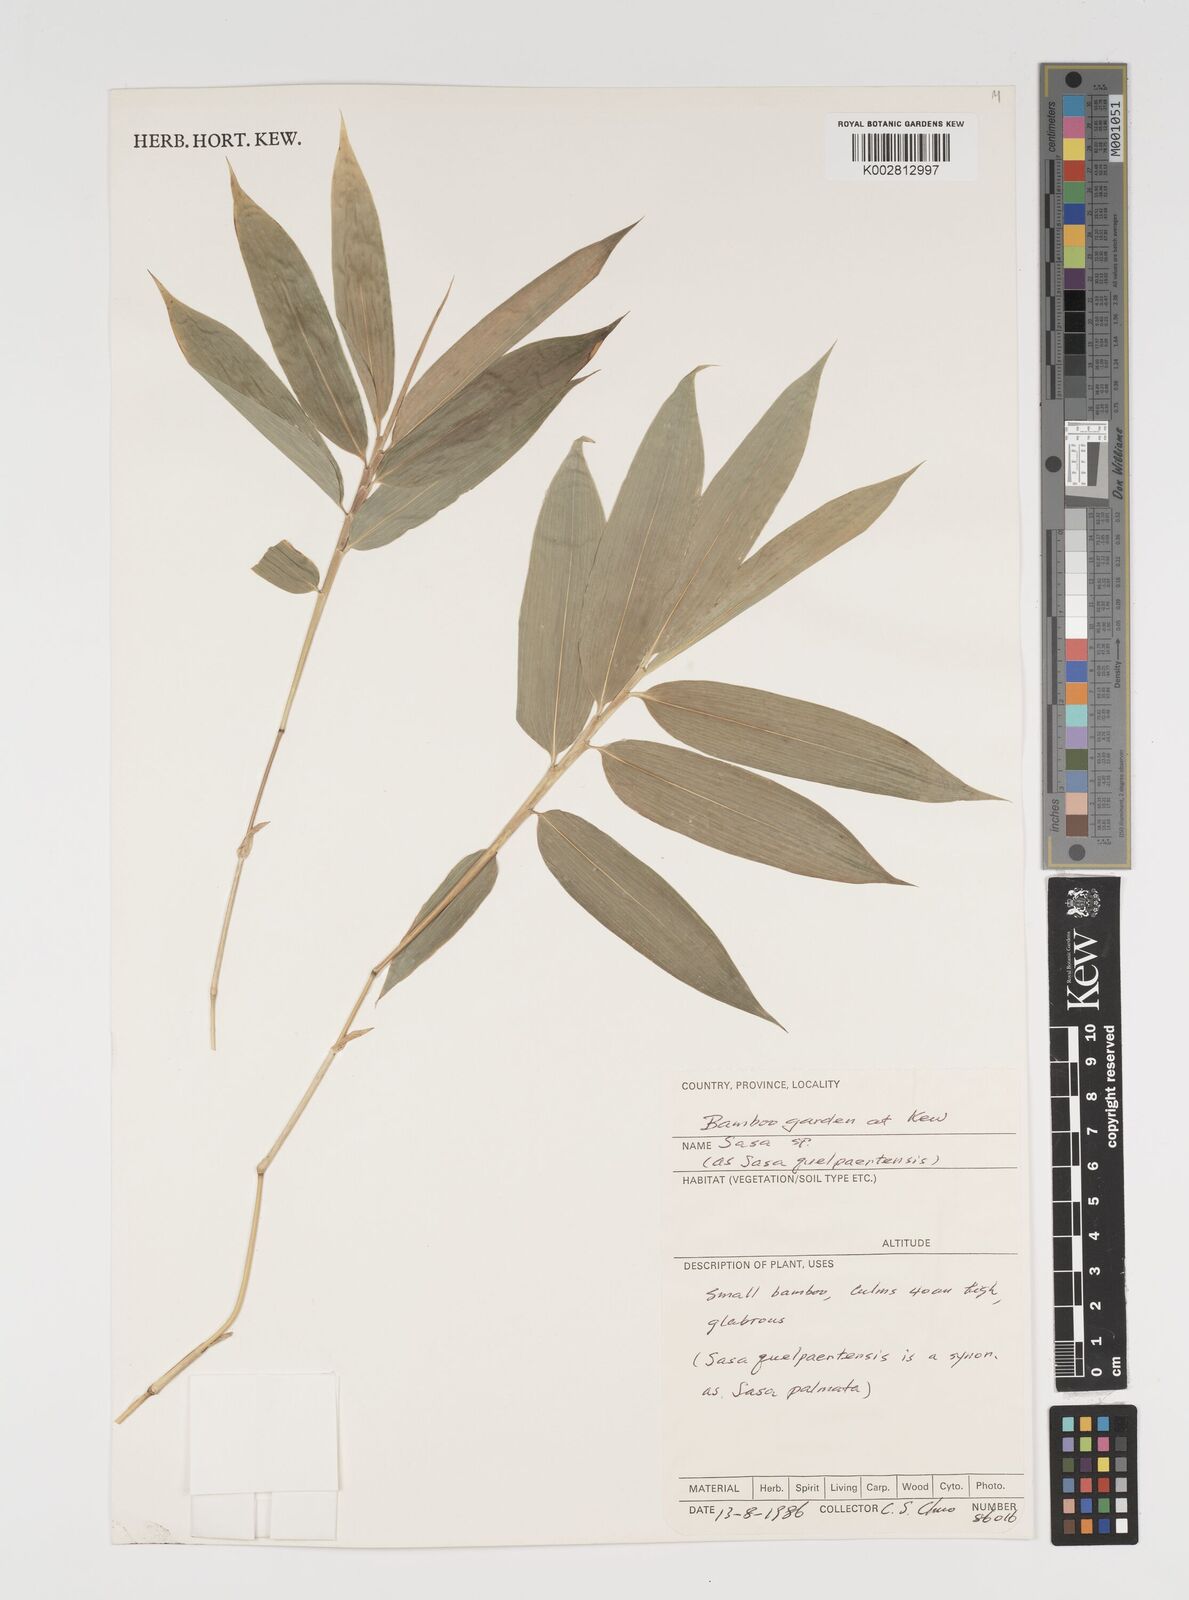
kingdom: Plantae
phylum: Tracheophyta
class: Liliopsida
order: Poales
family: Poaceae
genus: Sasa
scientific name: Sasa palmata
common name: Broad-leaved bamboo
